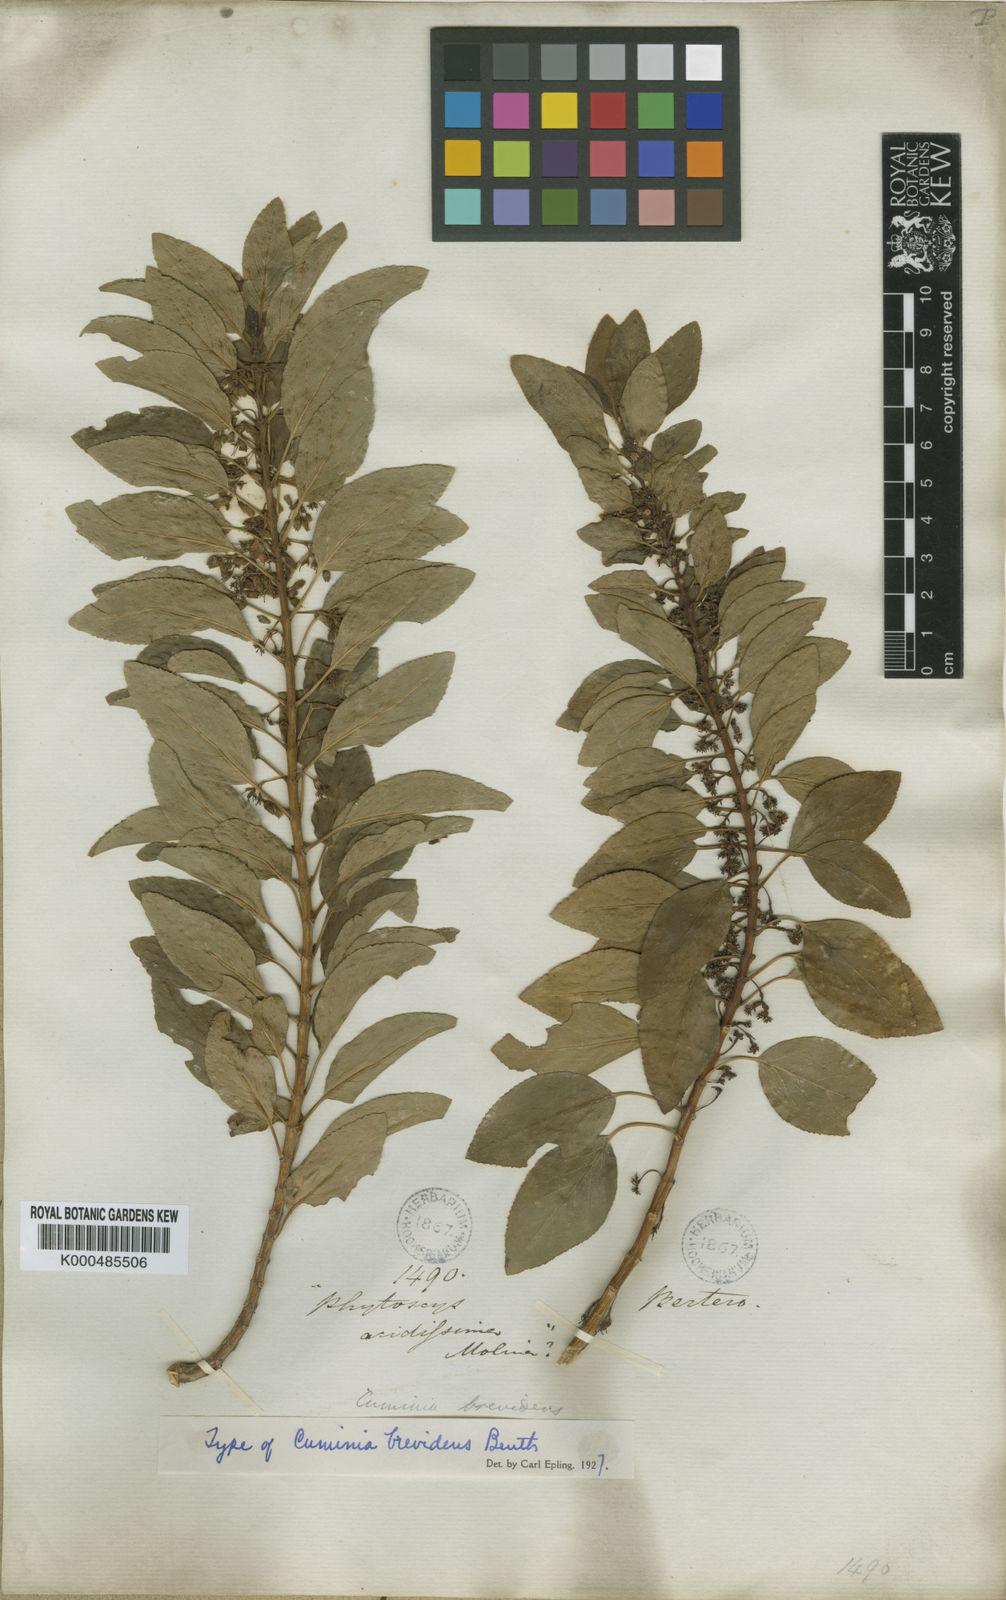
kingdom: Plantae
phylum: Tracheophyta
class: Magnoliopsida
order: Lamiales
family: Lamiaceae
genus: Cuminia
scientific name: Cuminia eriantha
